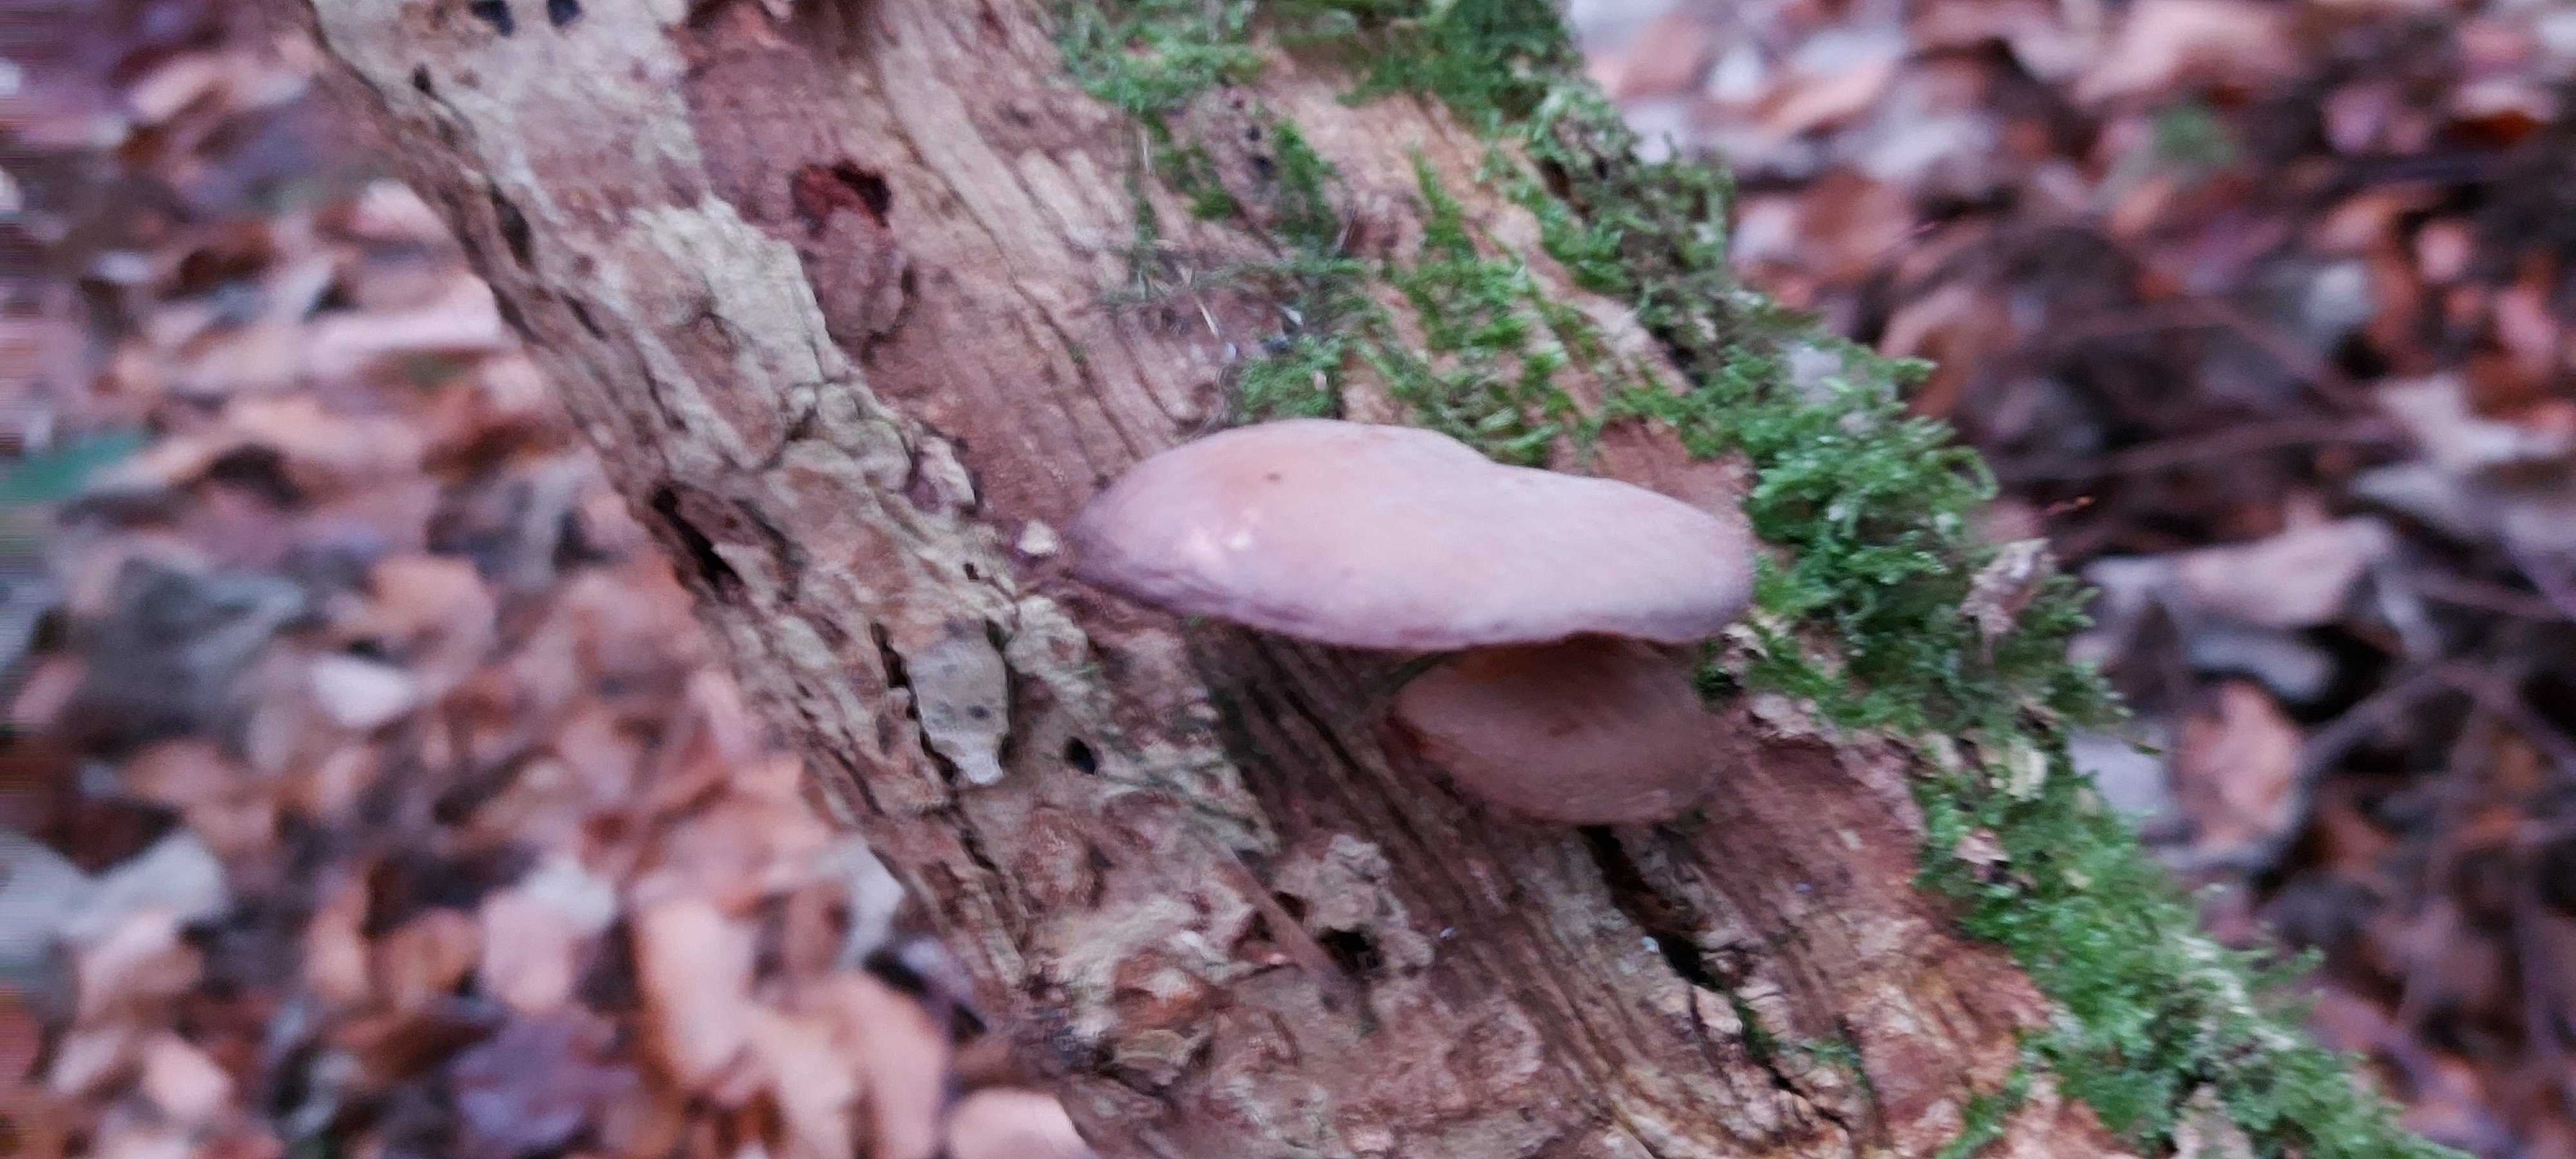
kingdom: Fungi
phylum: Basidiomycota
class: Agaricomycetes
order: Agaricales
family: Sarcomyxaceae
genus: Sarcomyxa
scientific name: Sarcomyxa serotina
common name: gummihat
